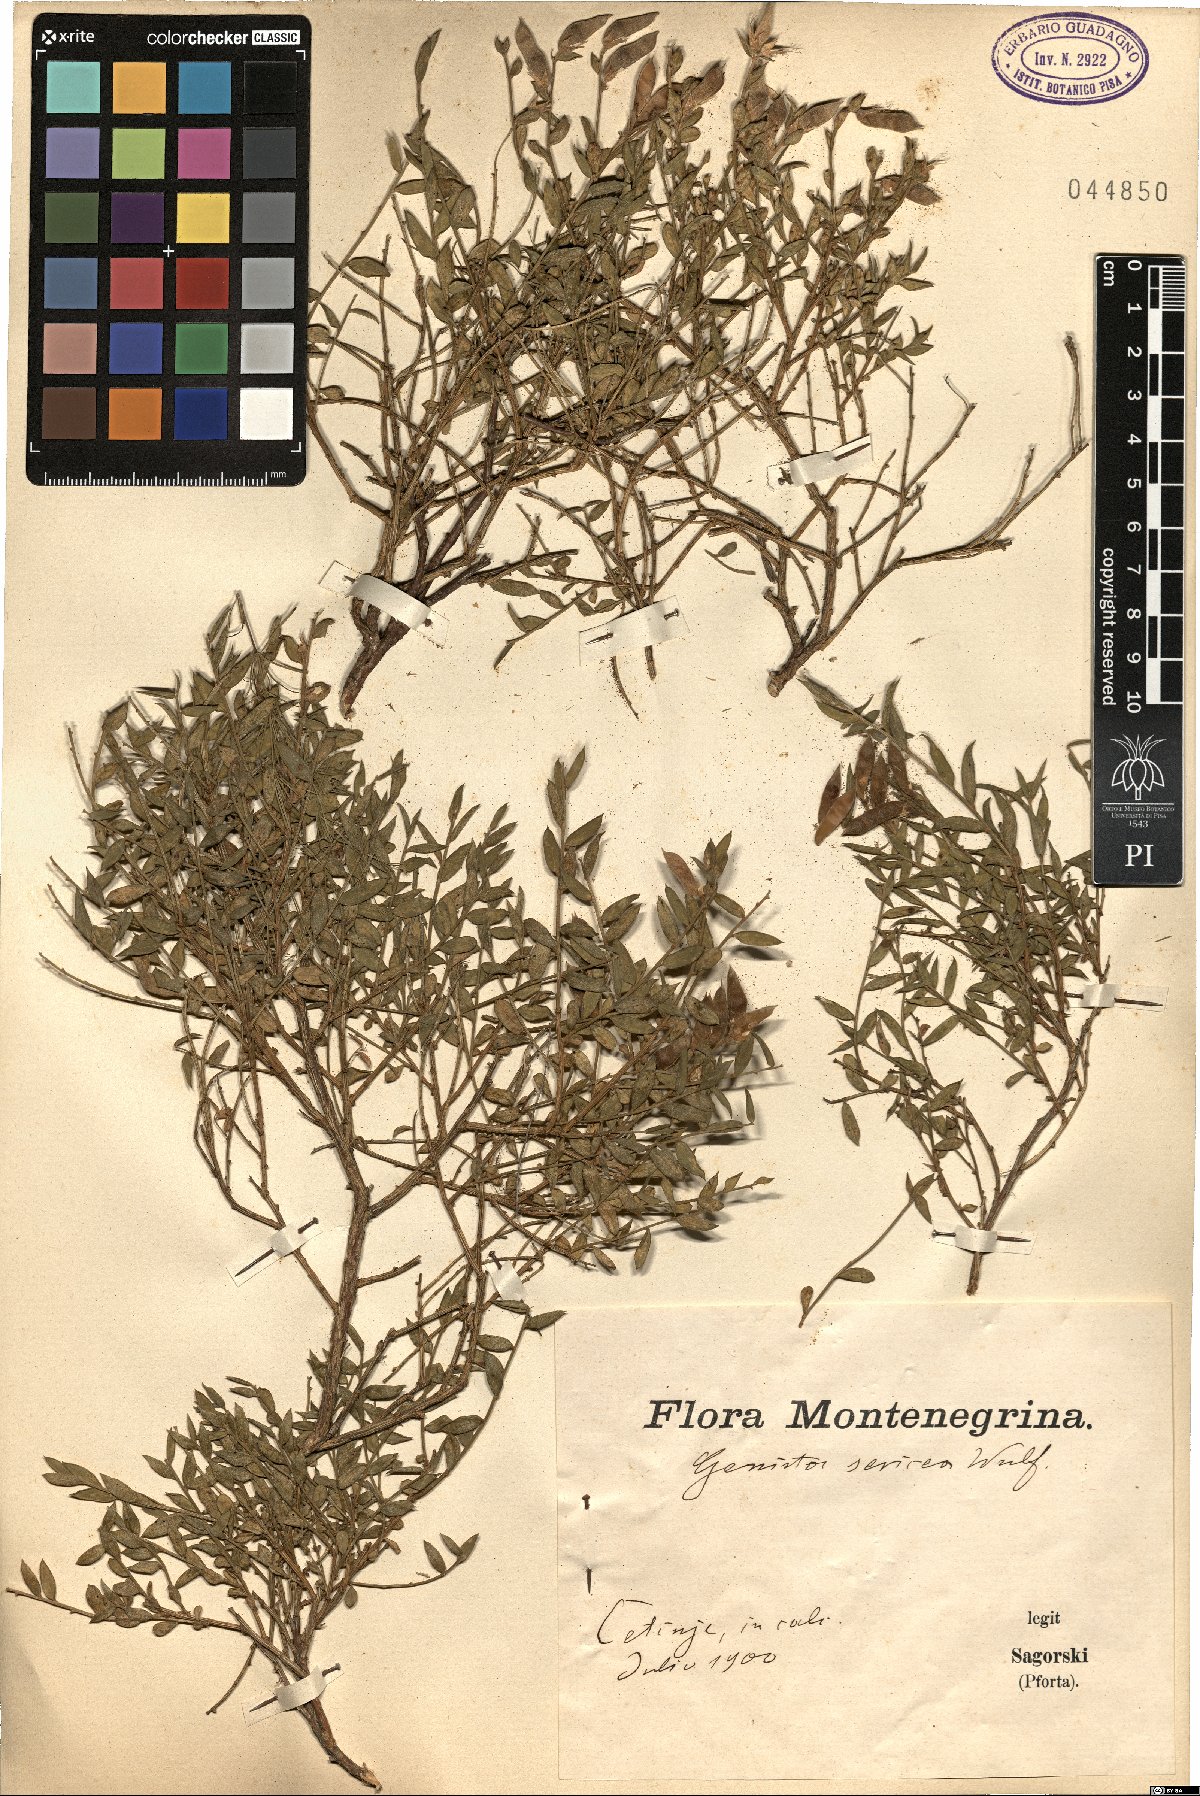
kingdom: Plantae
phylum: Tracheophyta
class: Magnoliopsida
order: Fabales
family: Fabaceae
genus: Genista
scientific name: Genista sericea
